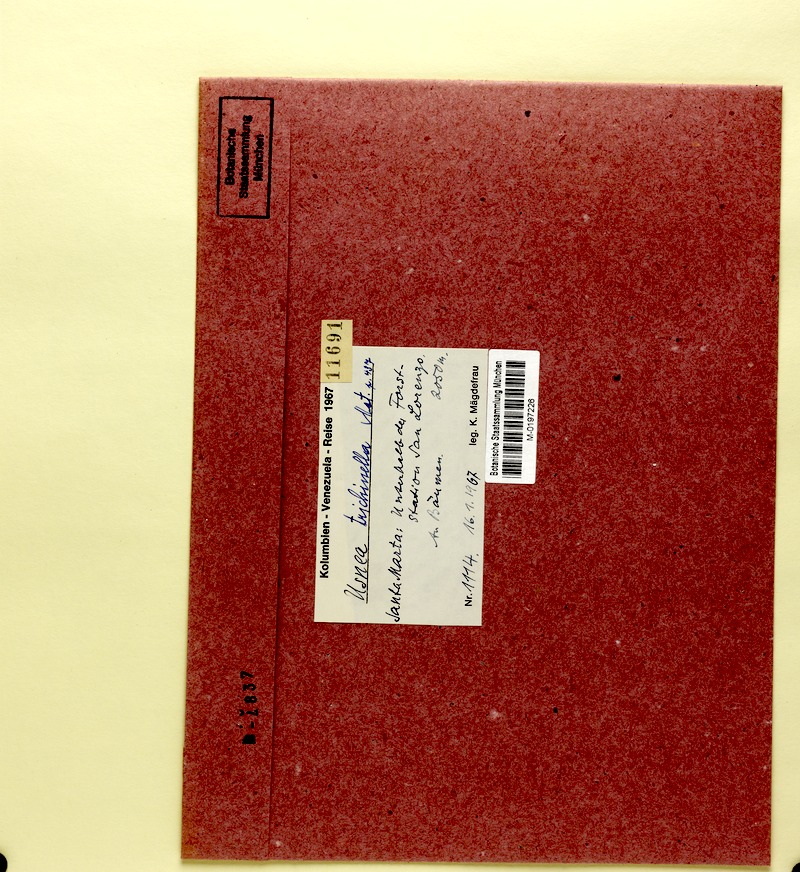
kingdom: Fungi
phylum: Ascomycota
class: Lecanoromycetes
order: Lecanorales
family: Parmeliaceae
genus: Usnea
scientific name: Usnea
